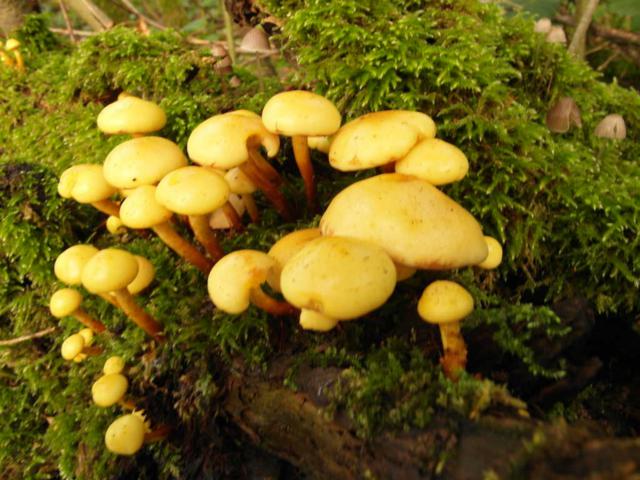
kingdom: Fungi
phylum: Basidiomycota
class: Agaricomycetes
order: Agaricales
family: Hymenogastraceae
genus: Flammula
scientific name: Flammula alnicola
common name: elle-skælhat
